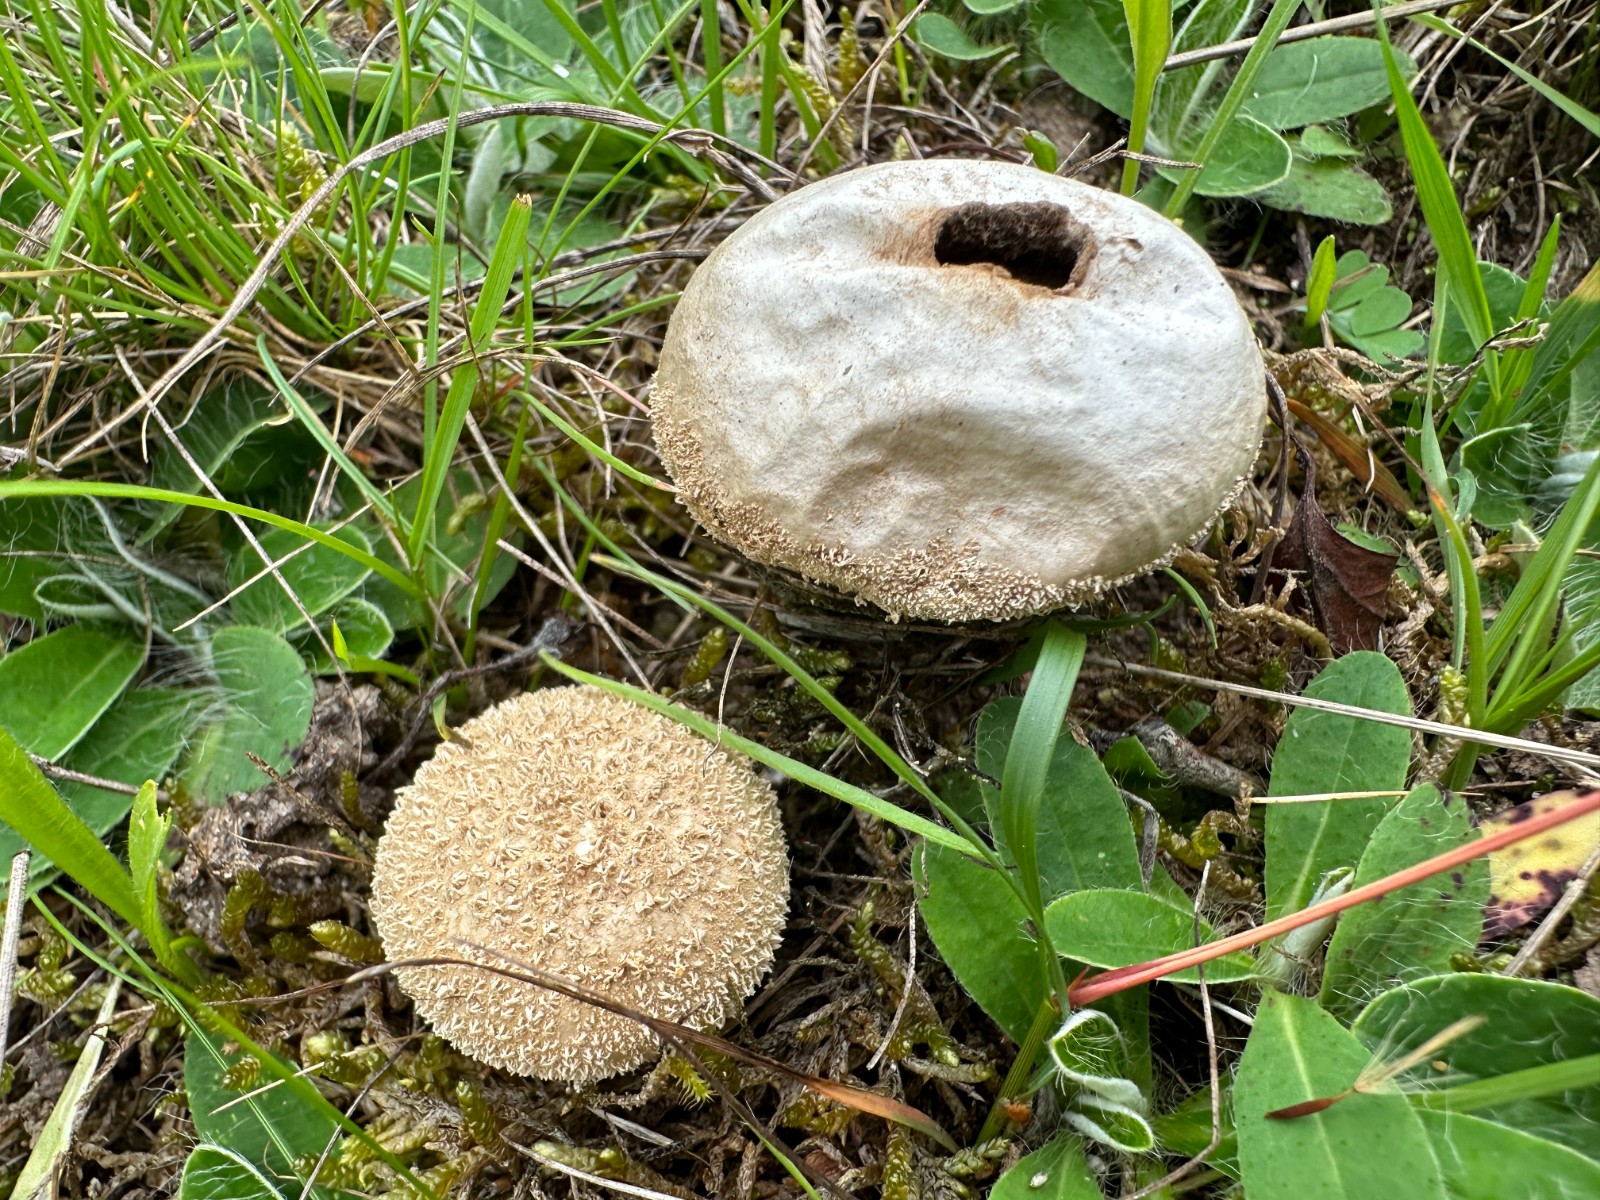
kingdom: Fungi
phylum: Basidiomycota
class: Agaricomycetes
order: Agaricales
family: Lycoperdaceae
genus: Lycoperdon
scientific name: Lycoperdon lividum
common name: mark-støvbold
